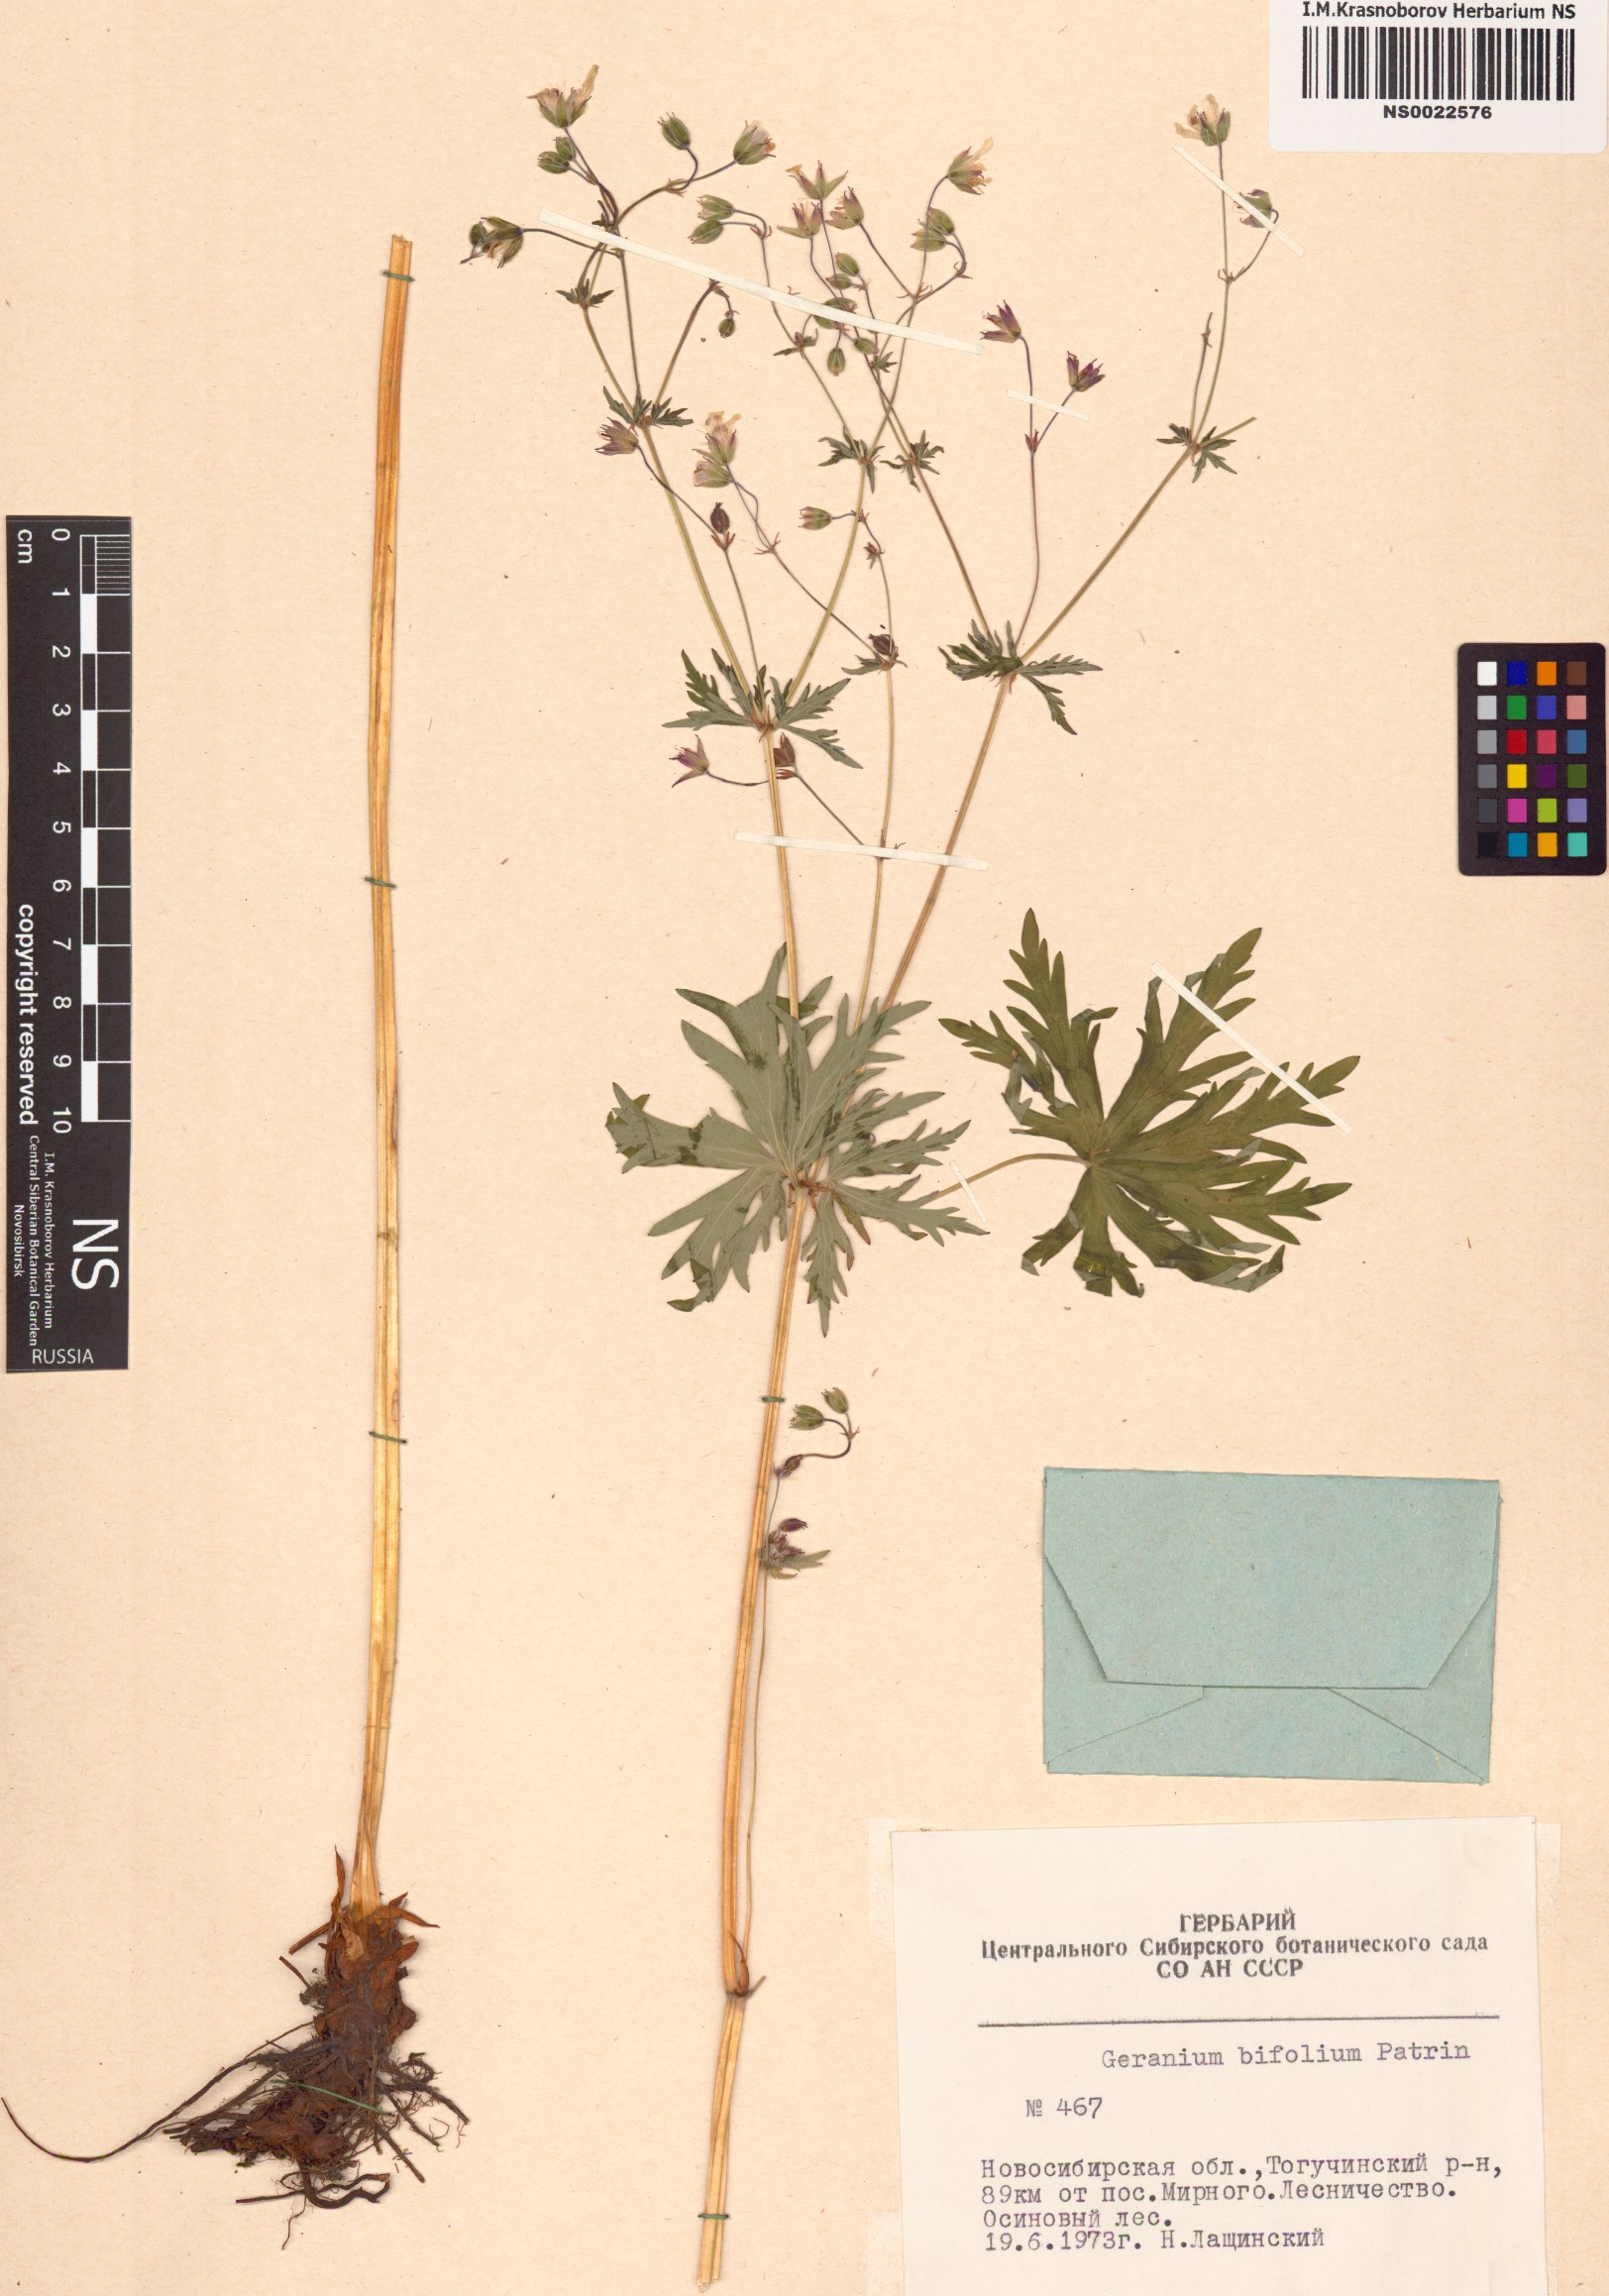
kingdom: Plantae
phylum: Tracheophyta
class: Magnoliopsida
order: Geraniales
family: Geraniaceae
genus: Geranium
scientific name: Geranium pseudosibiricum
